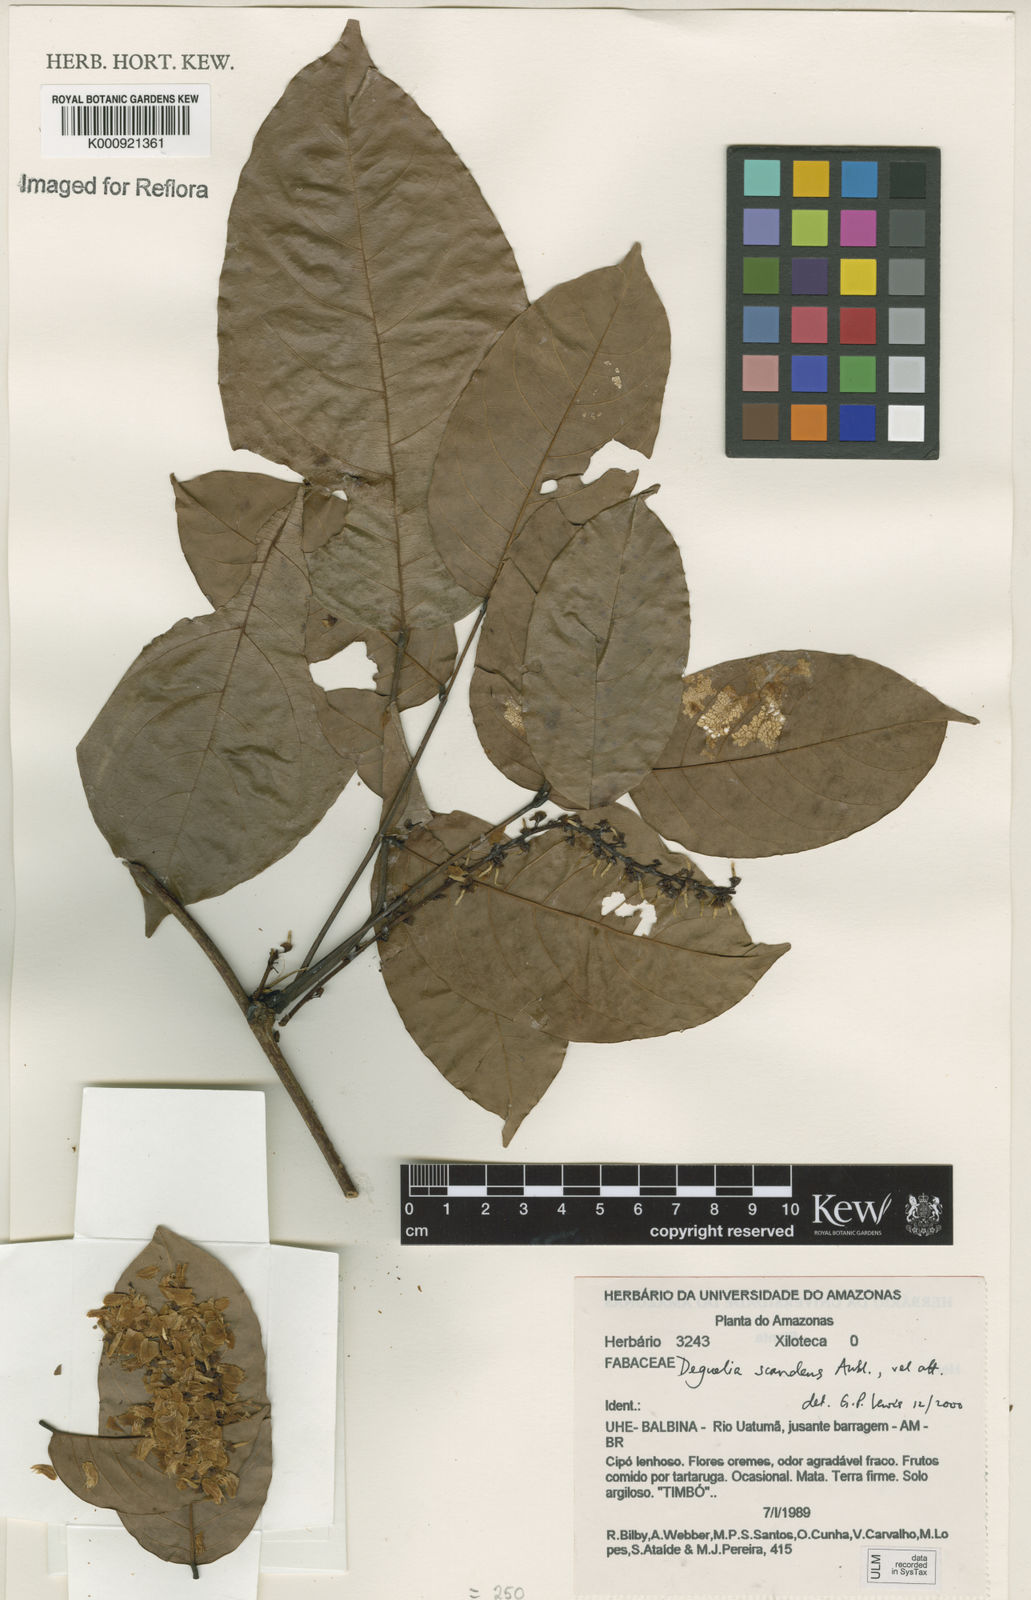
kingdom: Plantae
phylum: Tracheophyta
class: Magnoliopsida
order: Fabales
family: Fabaceae
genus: Deguelia
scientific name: Deguelia scandens
